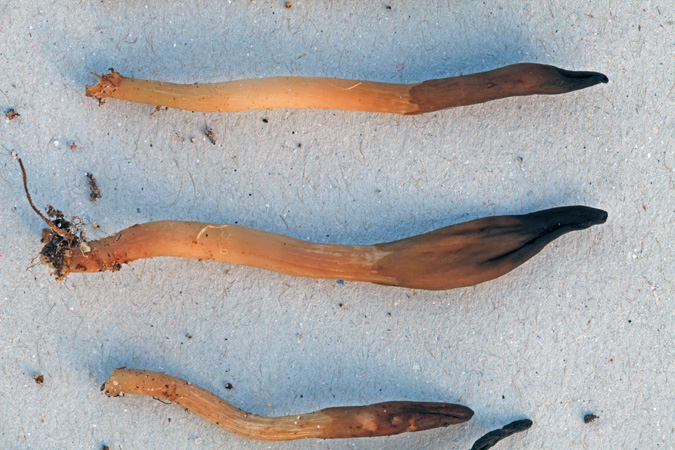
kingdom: Fungi
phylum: Ascomycota
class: Leotiomycetes
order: Leotiales
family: Leotiaceae
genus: Microglossum
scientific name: Microglossum olivaceum
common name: olivenbrun farvetunge
